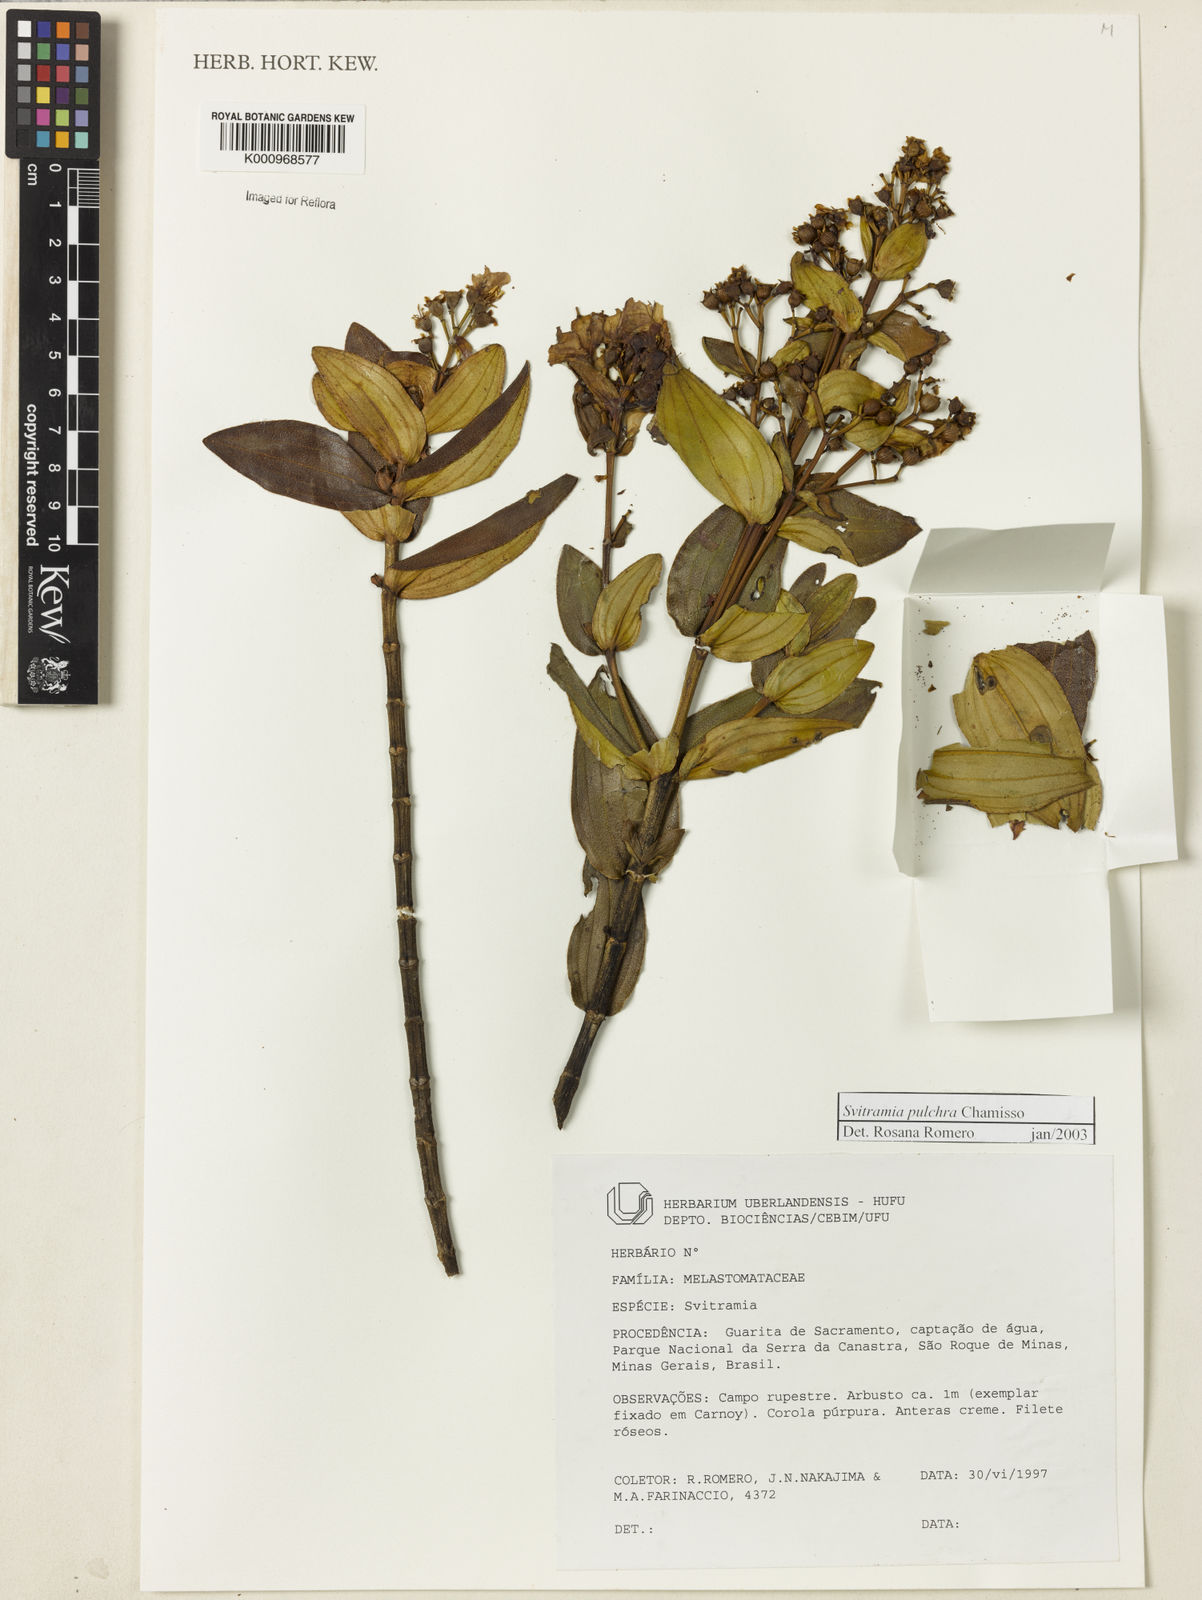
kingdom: Plantae
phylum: Tracheophyta
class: Magnoliopsida
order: Myrtales
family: Melastomataceae
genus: Pleroma
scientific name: Pleroma bandeirae
